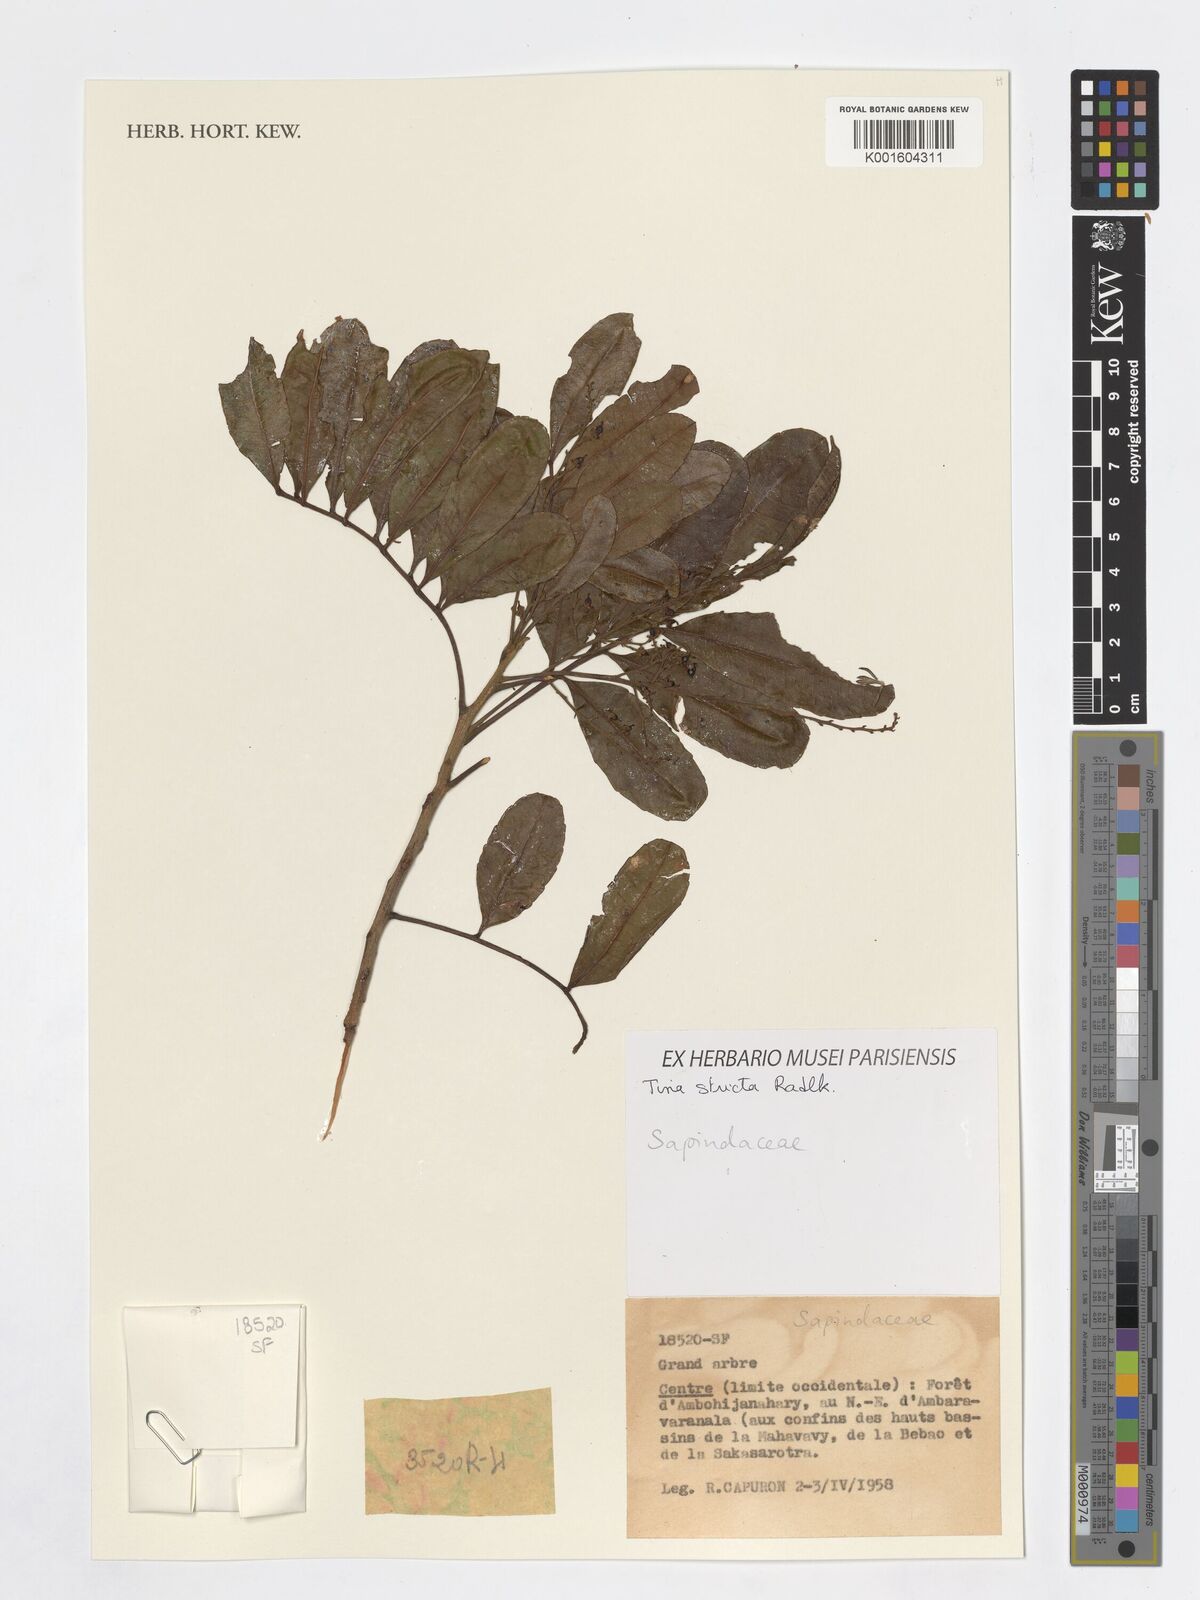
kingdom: Plantae
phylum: Tracheophyta
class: Magnoliopsida
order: Sapindales
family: Sapindaceae
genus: Tina
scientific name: Tina striata
